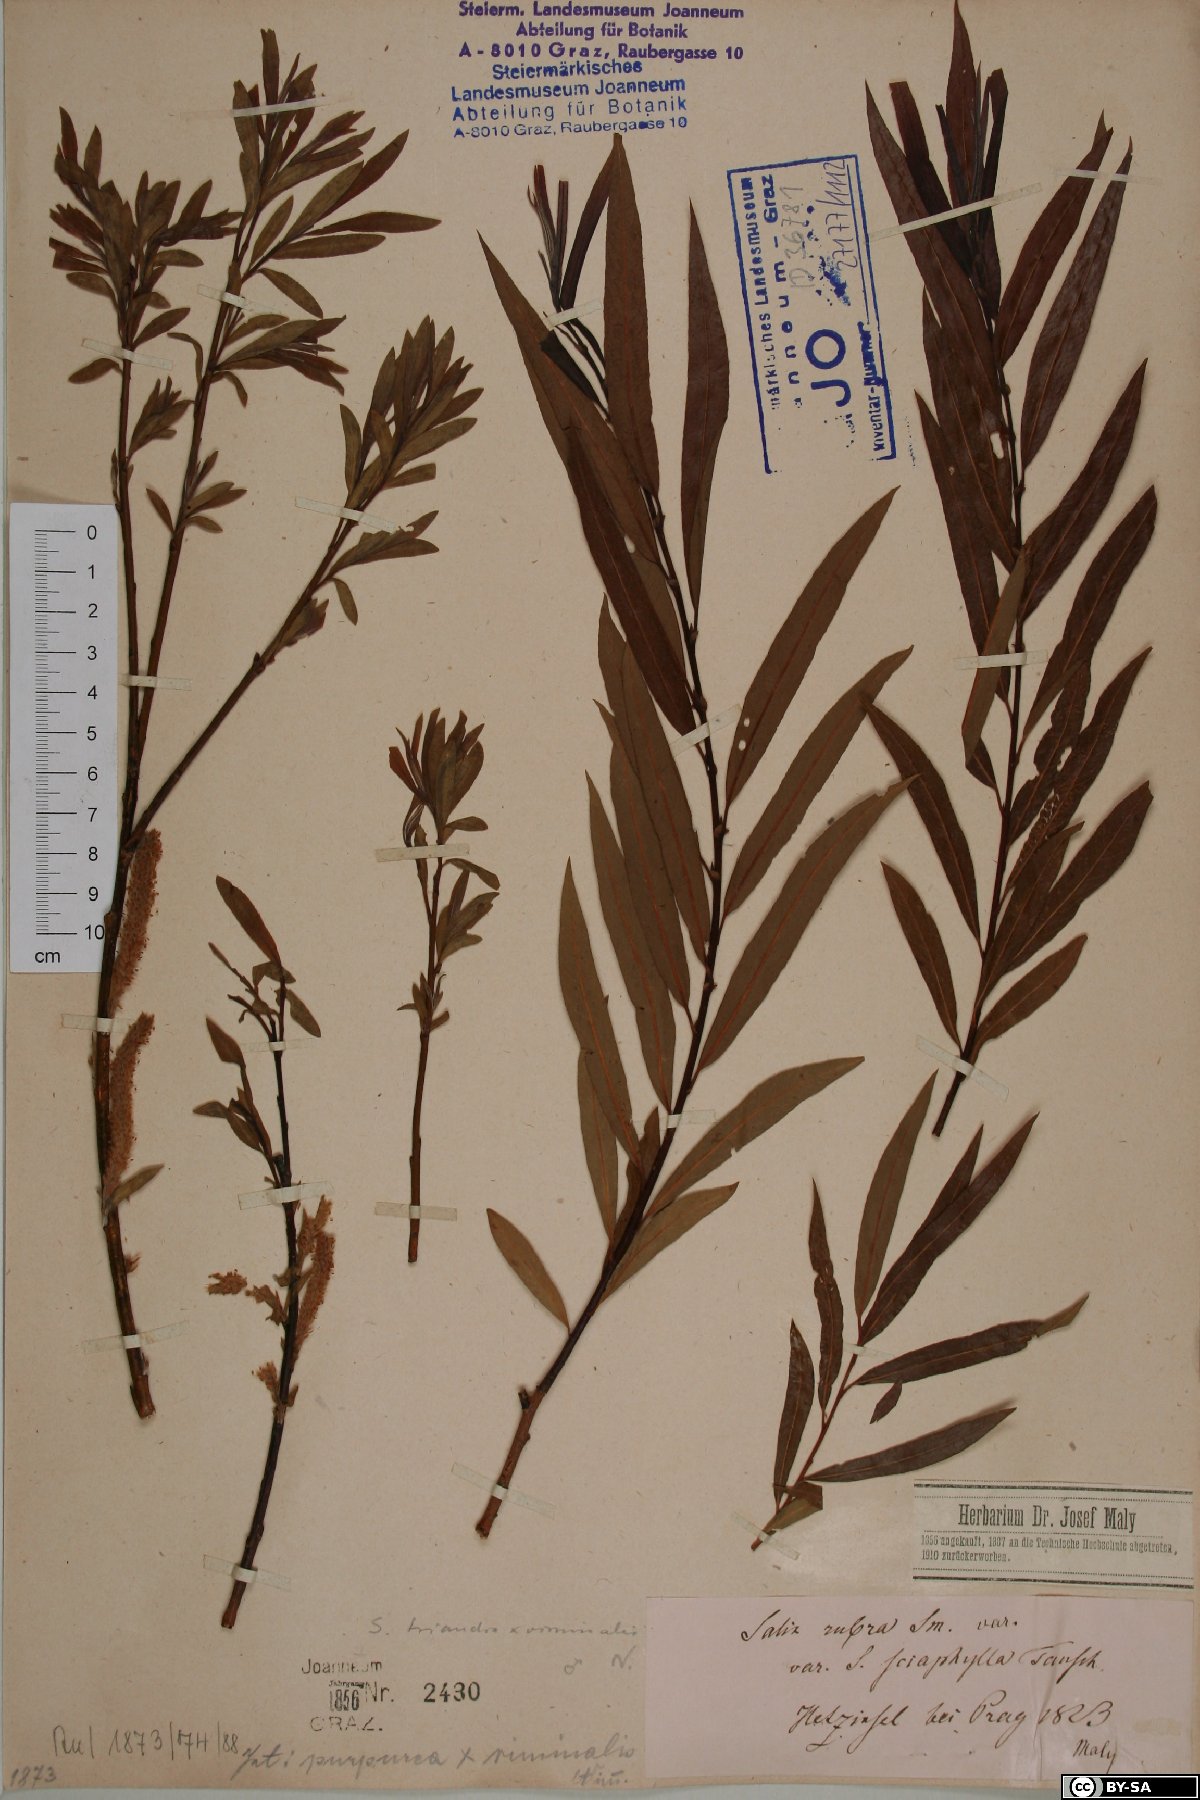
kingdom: Plantae
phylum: Tracheophyta
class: Magnoliopsida
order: Malpighiales
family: Salicaceae
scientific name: Salicaceae
